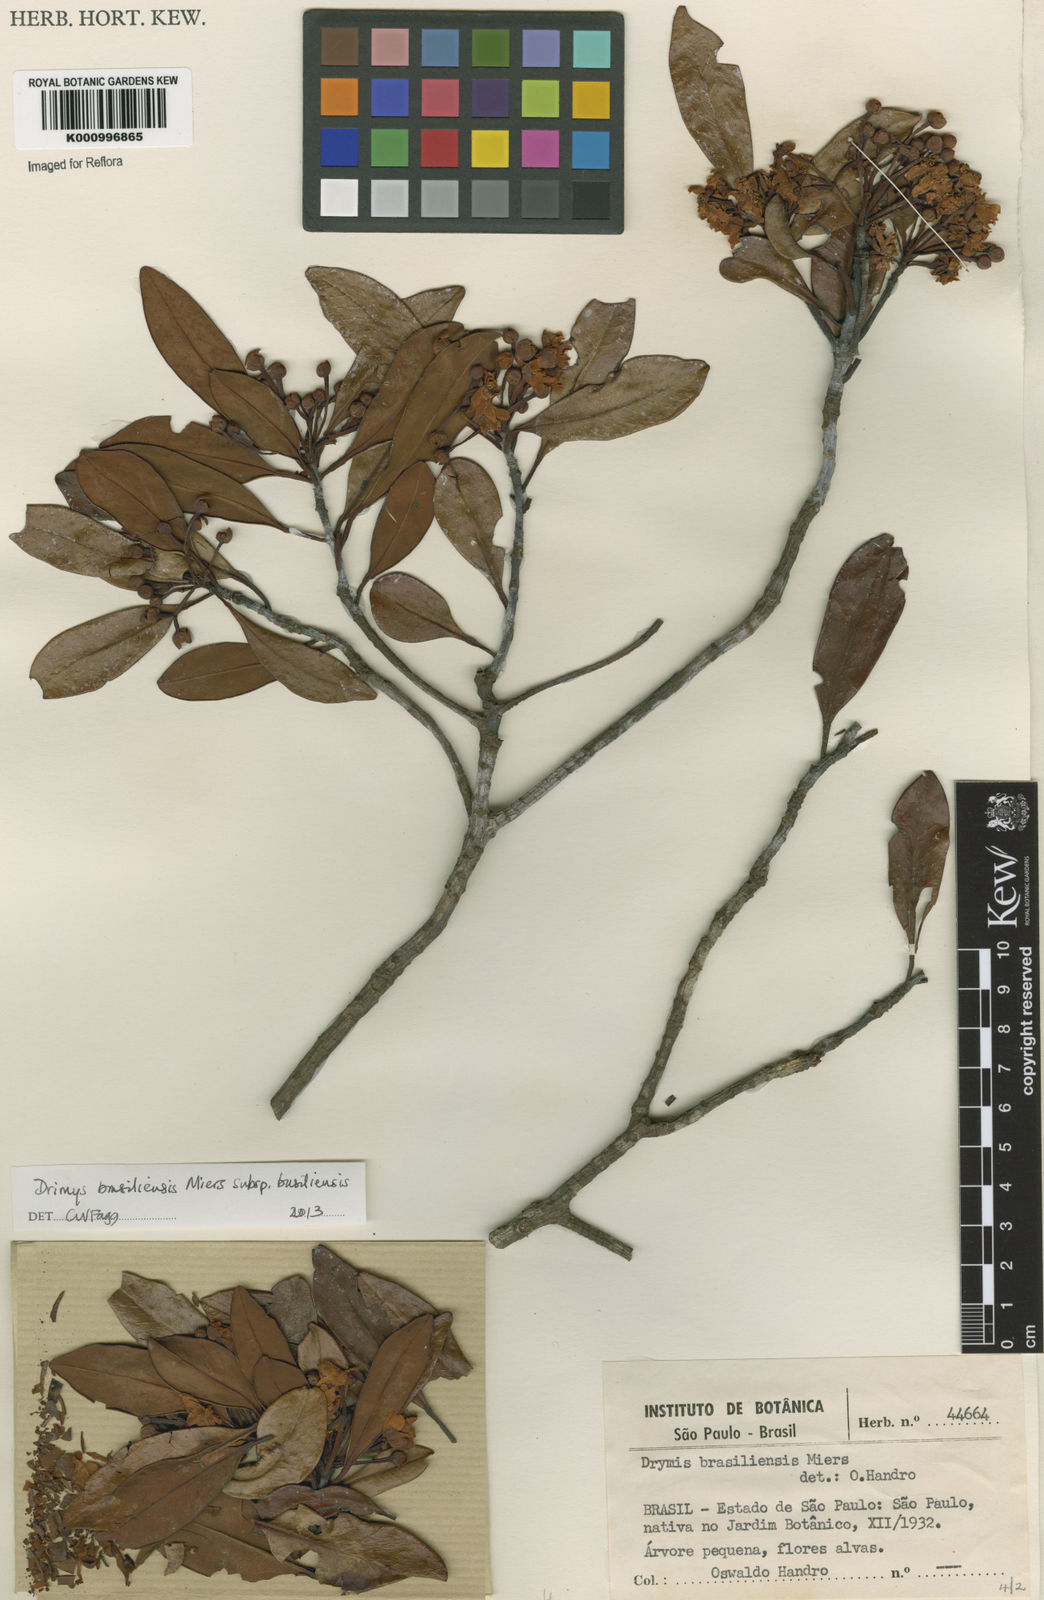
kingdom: Plantae
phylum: Tracheophyta
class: Magnoliopsida
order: Canellales
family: Winteraceae
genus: Drimys
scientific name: Drimys brasiliensis
